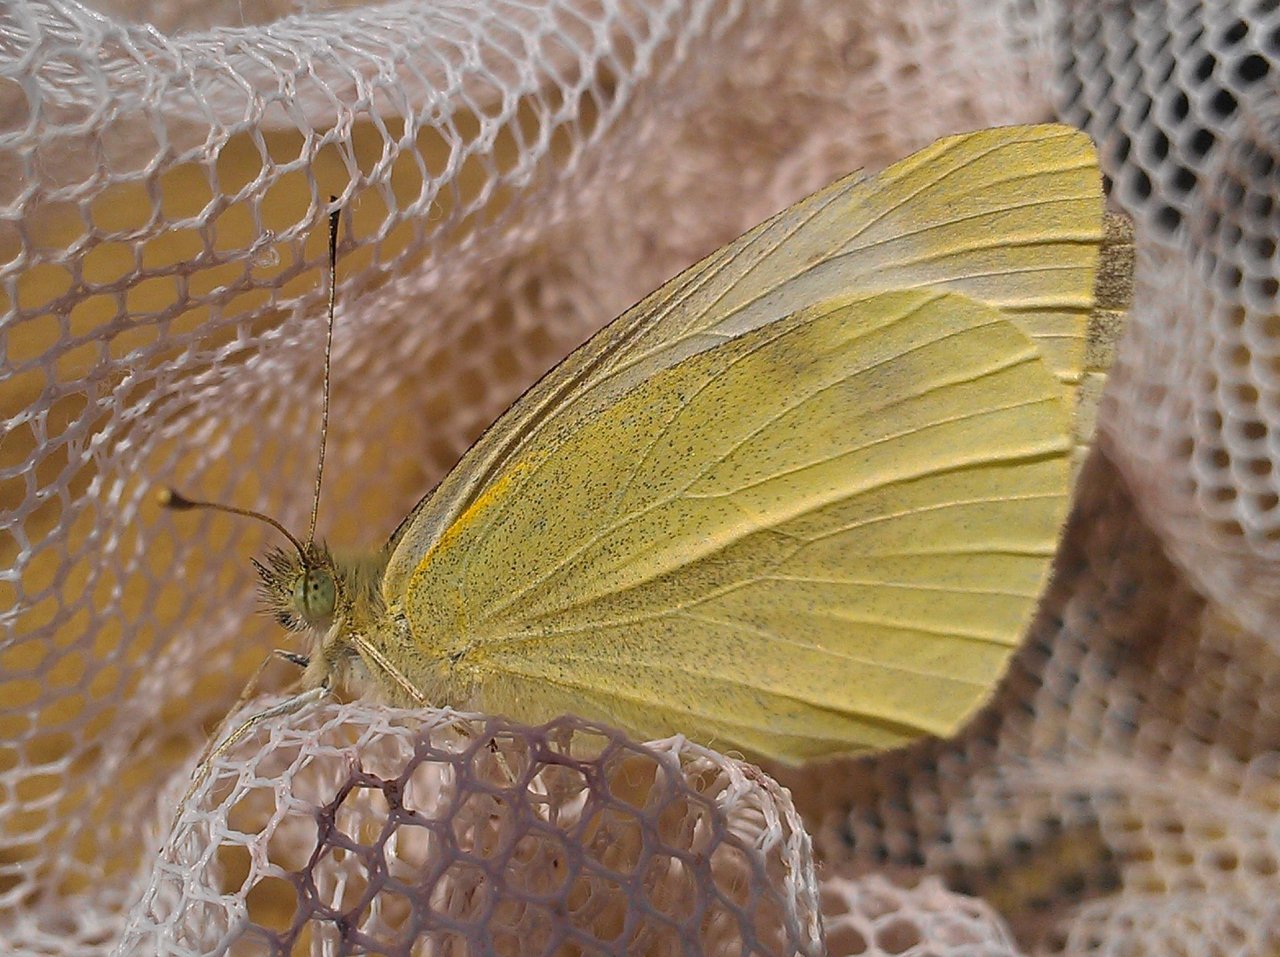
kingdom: Animalia
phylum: Arthropoda
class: Insecta
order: Lepidoptera
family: Pieridae
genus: Pieris
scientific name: Pieris rapae
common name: Cabbage White
